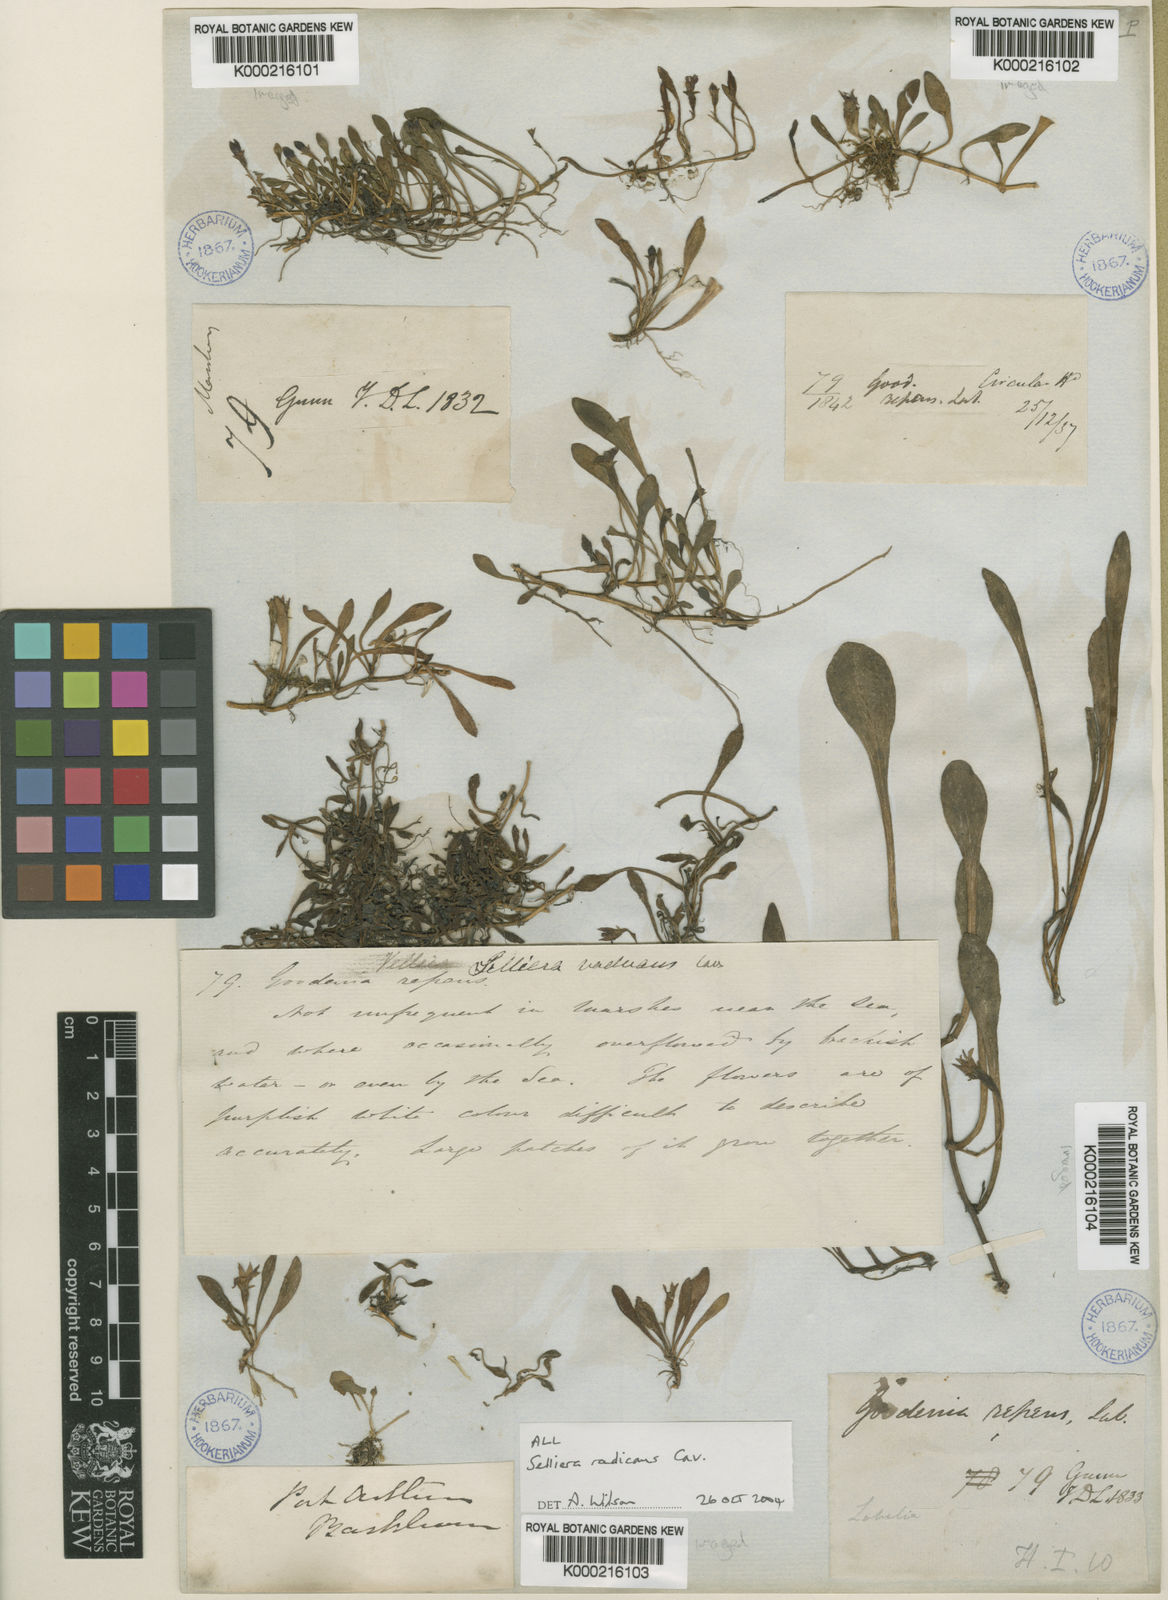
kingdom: Plantae
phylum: Tracheophyta
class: Magnoliopsida
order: Asterales
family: Goodeniaceae
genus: Goodenia
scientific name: Goodenia radicans
